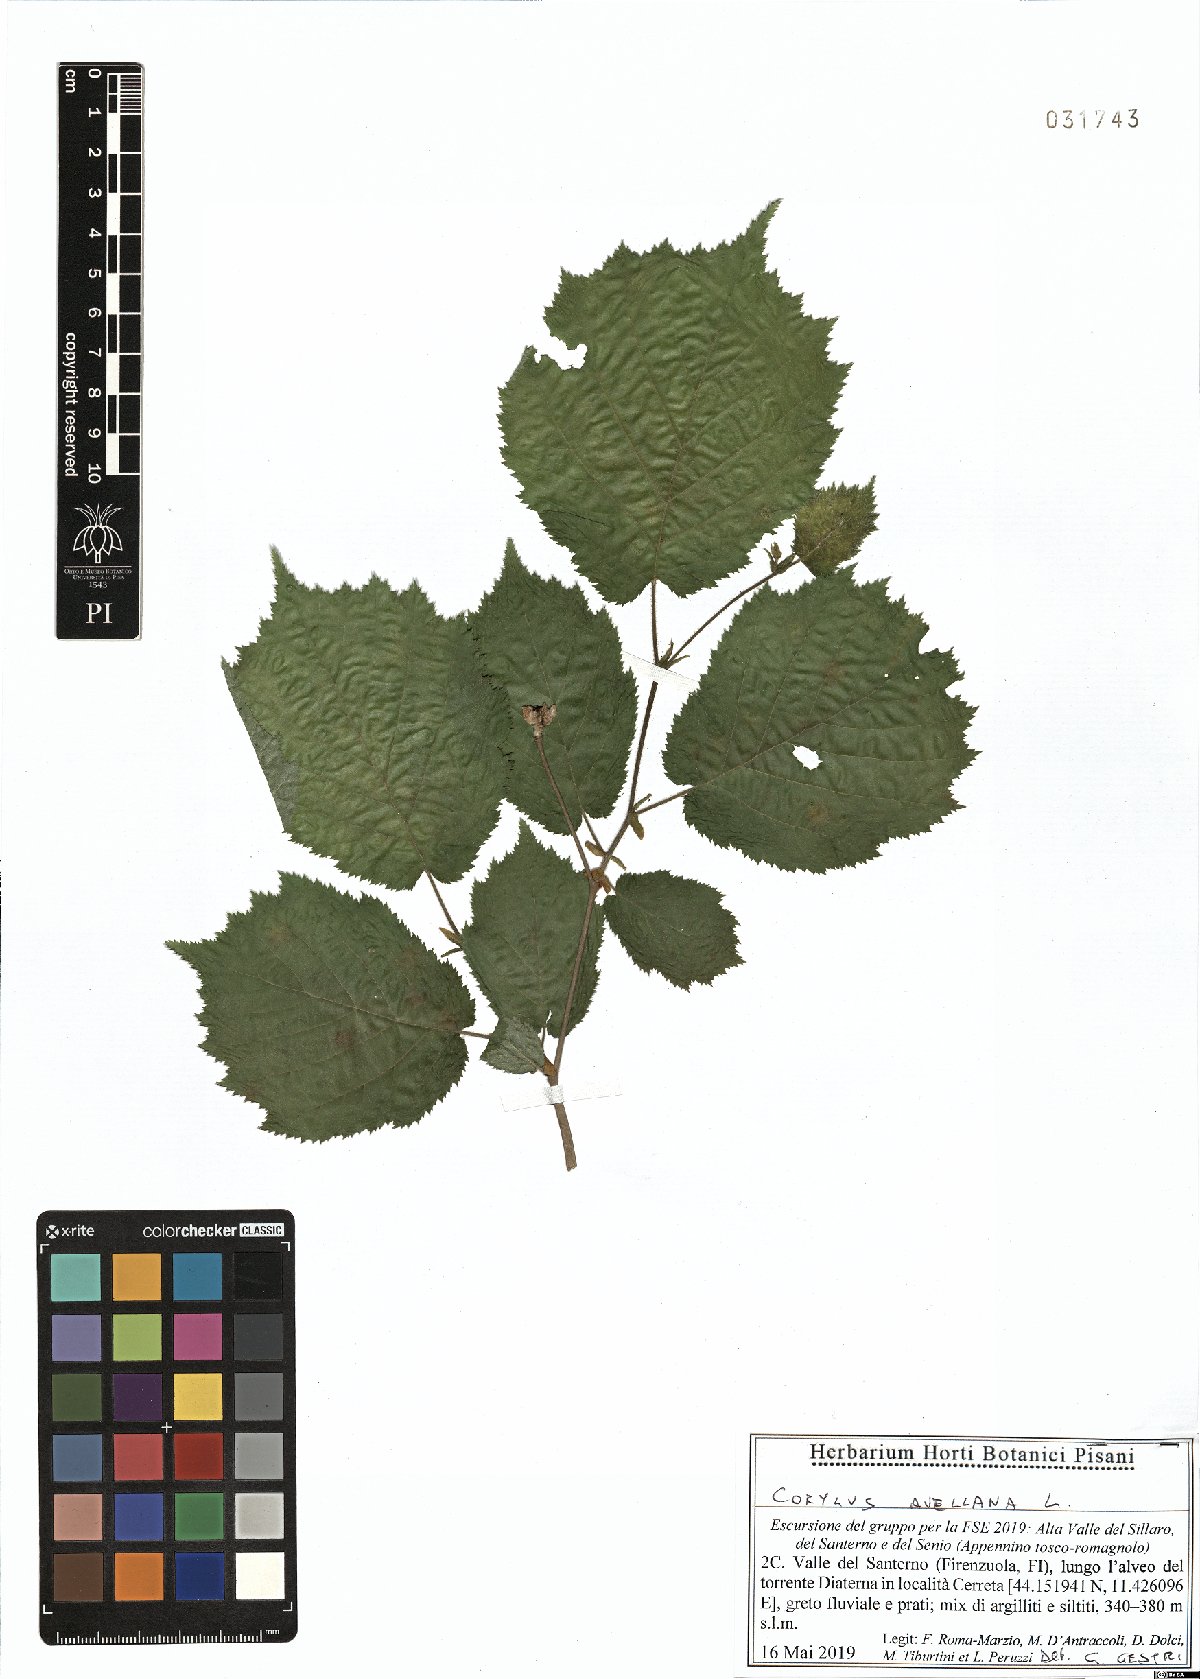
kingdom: Plantae
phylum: Tracheophyta
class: Magnoliopsida
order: Fagales
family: Betulaceae
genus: Corylus
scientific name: Corylus avellana
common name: European hazel
